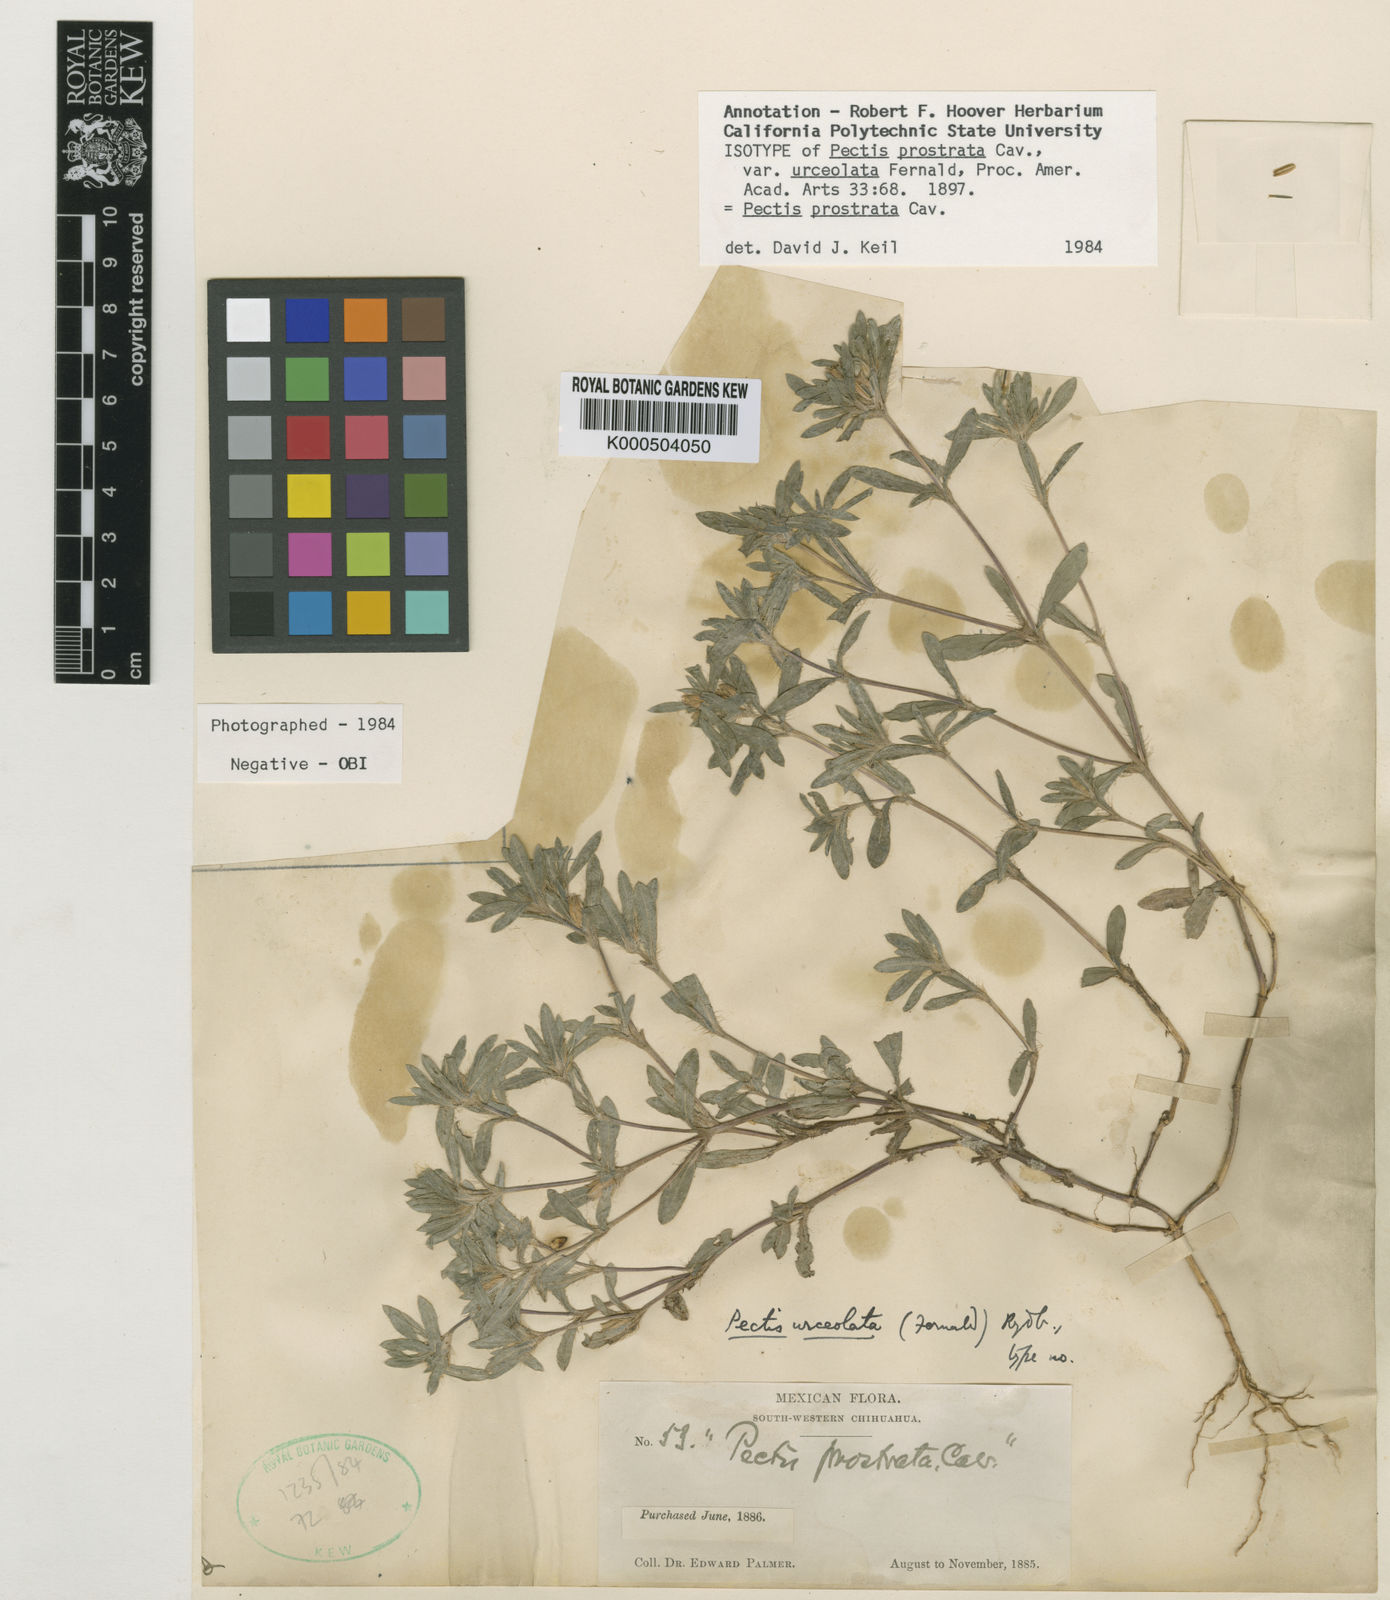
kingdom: Plantae
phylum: Tracheophyta
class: Magnoliopsida
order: Asterales
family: Asteraceae
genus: Pectis
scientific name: Pectis prostrata
